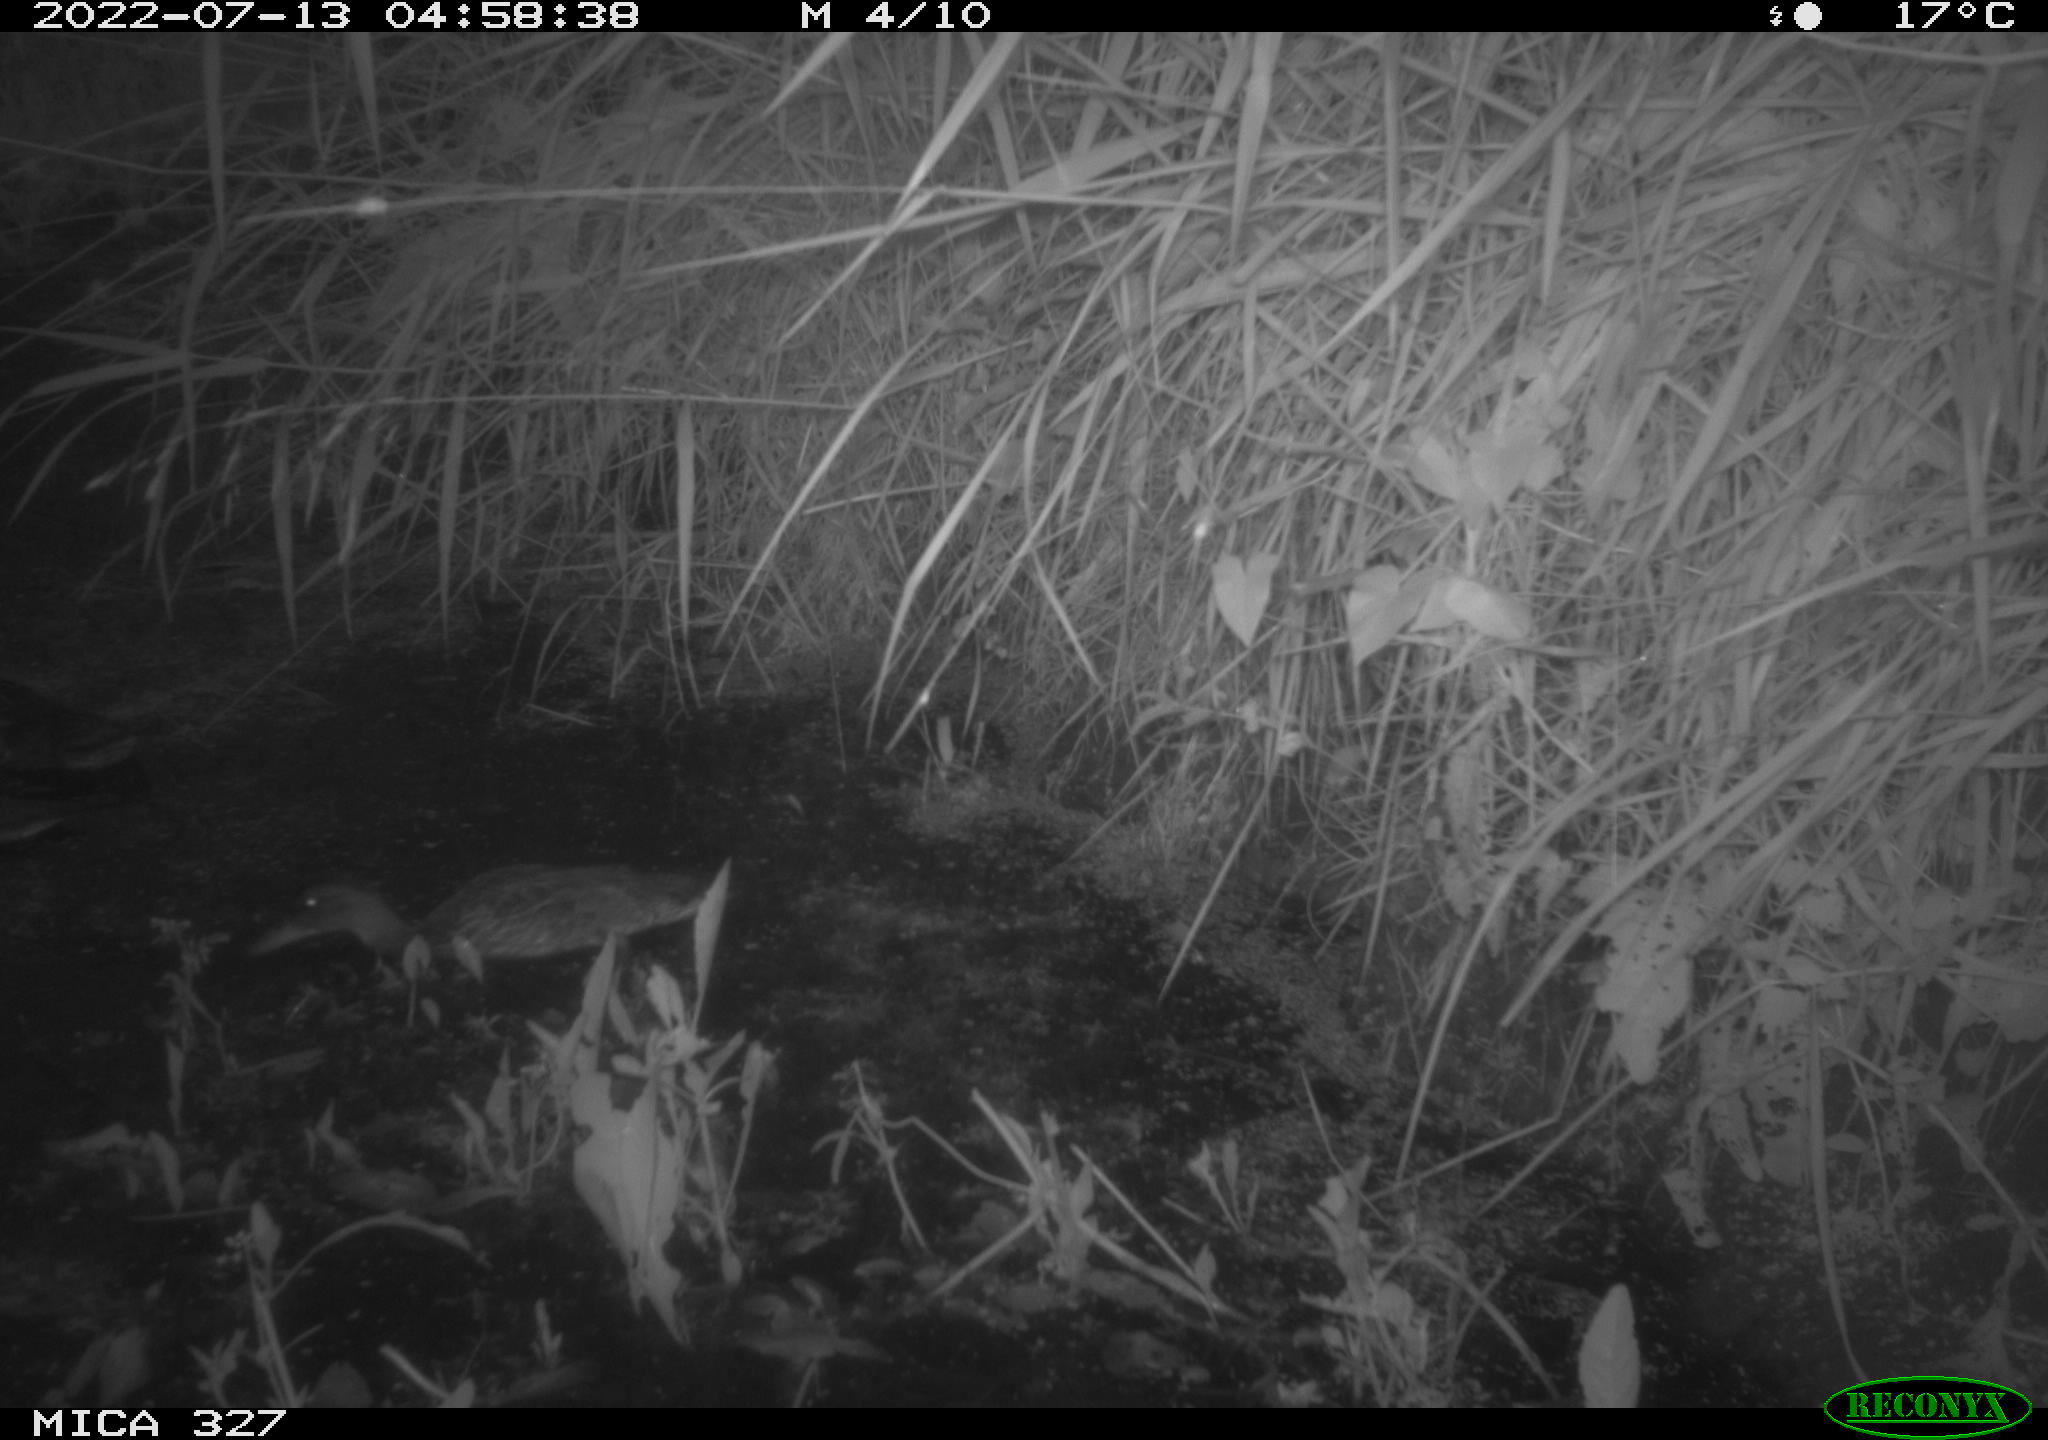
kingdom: Animalia
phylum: Chordata
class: Aves
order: Anseriformes
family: Anatidae
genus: Anas
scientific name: Anas
